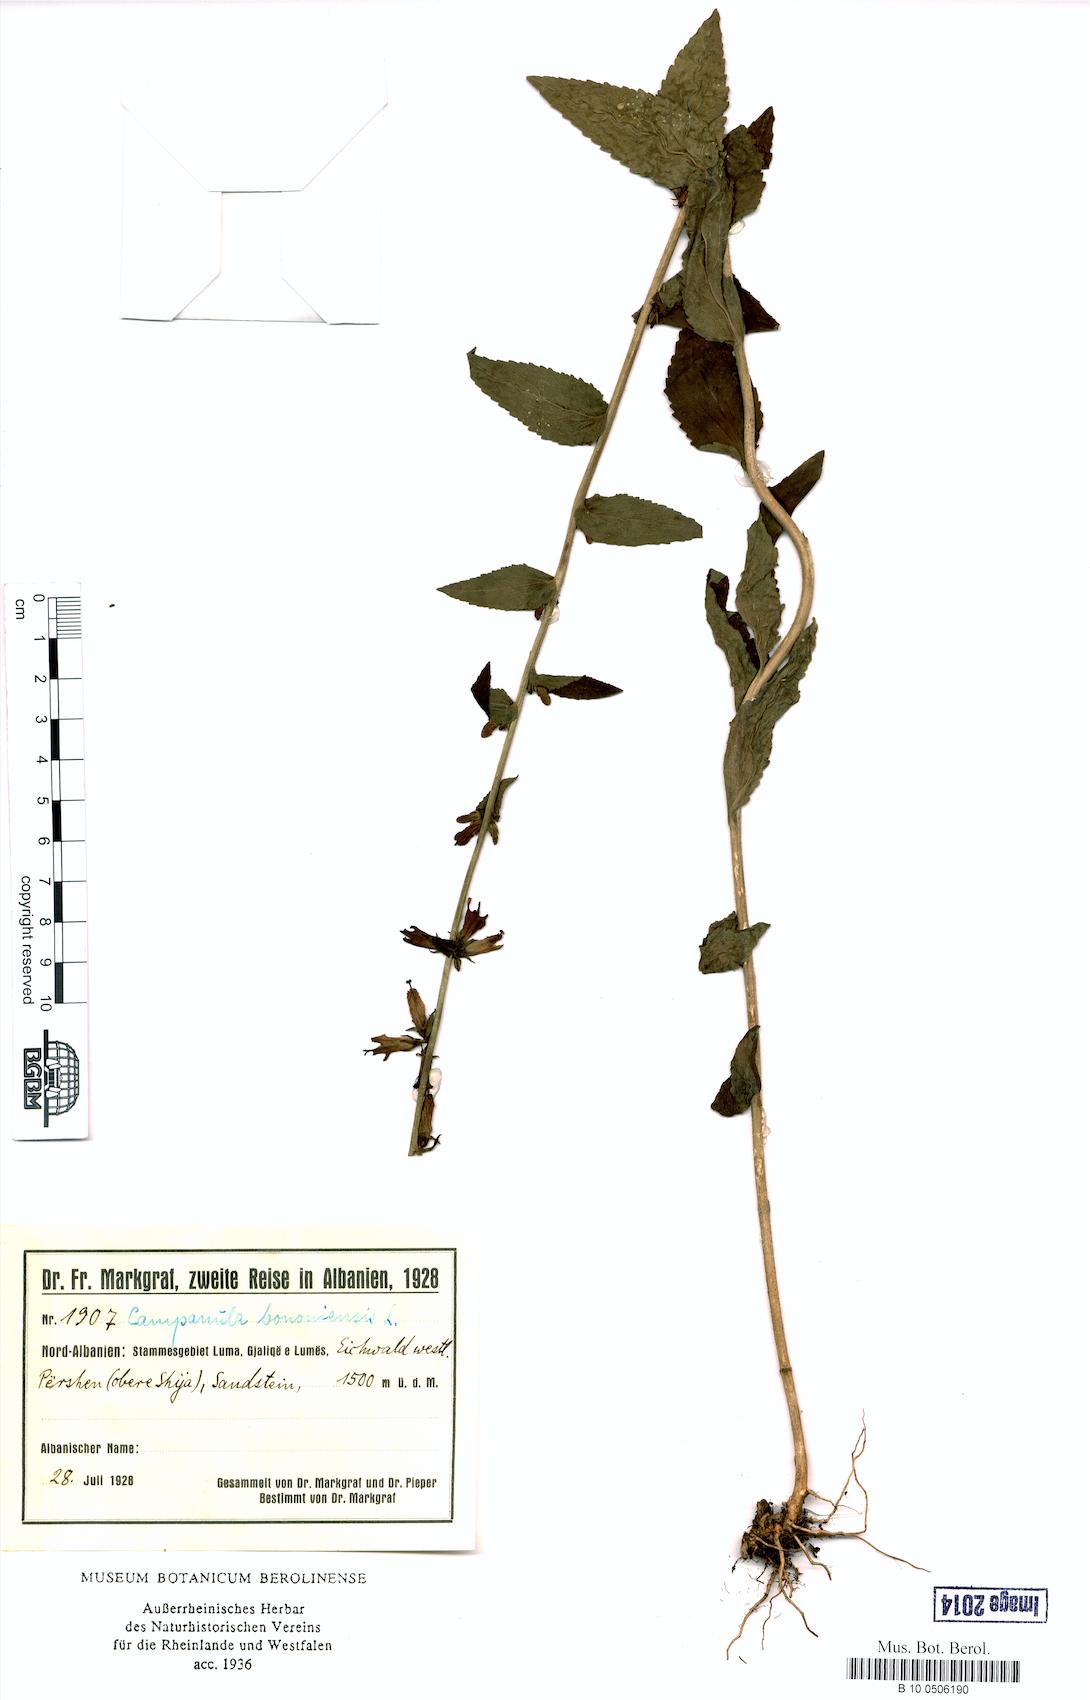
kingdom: Plantae
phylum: Tracheophyta
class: Magnoliopsida
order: Asterales
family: Campanulaceae
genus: Campanula
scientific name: Campanula bononiensis
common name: Pale bellflower
